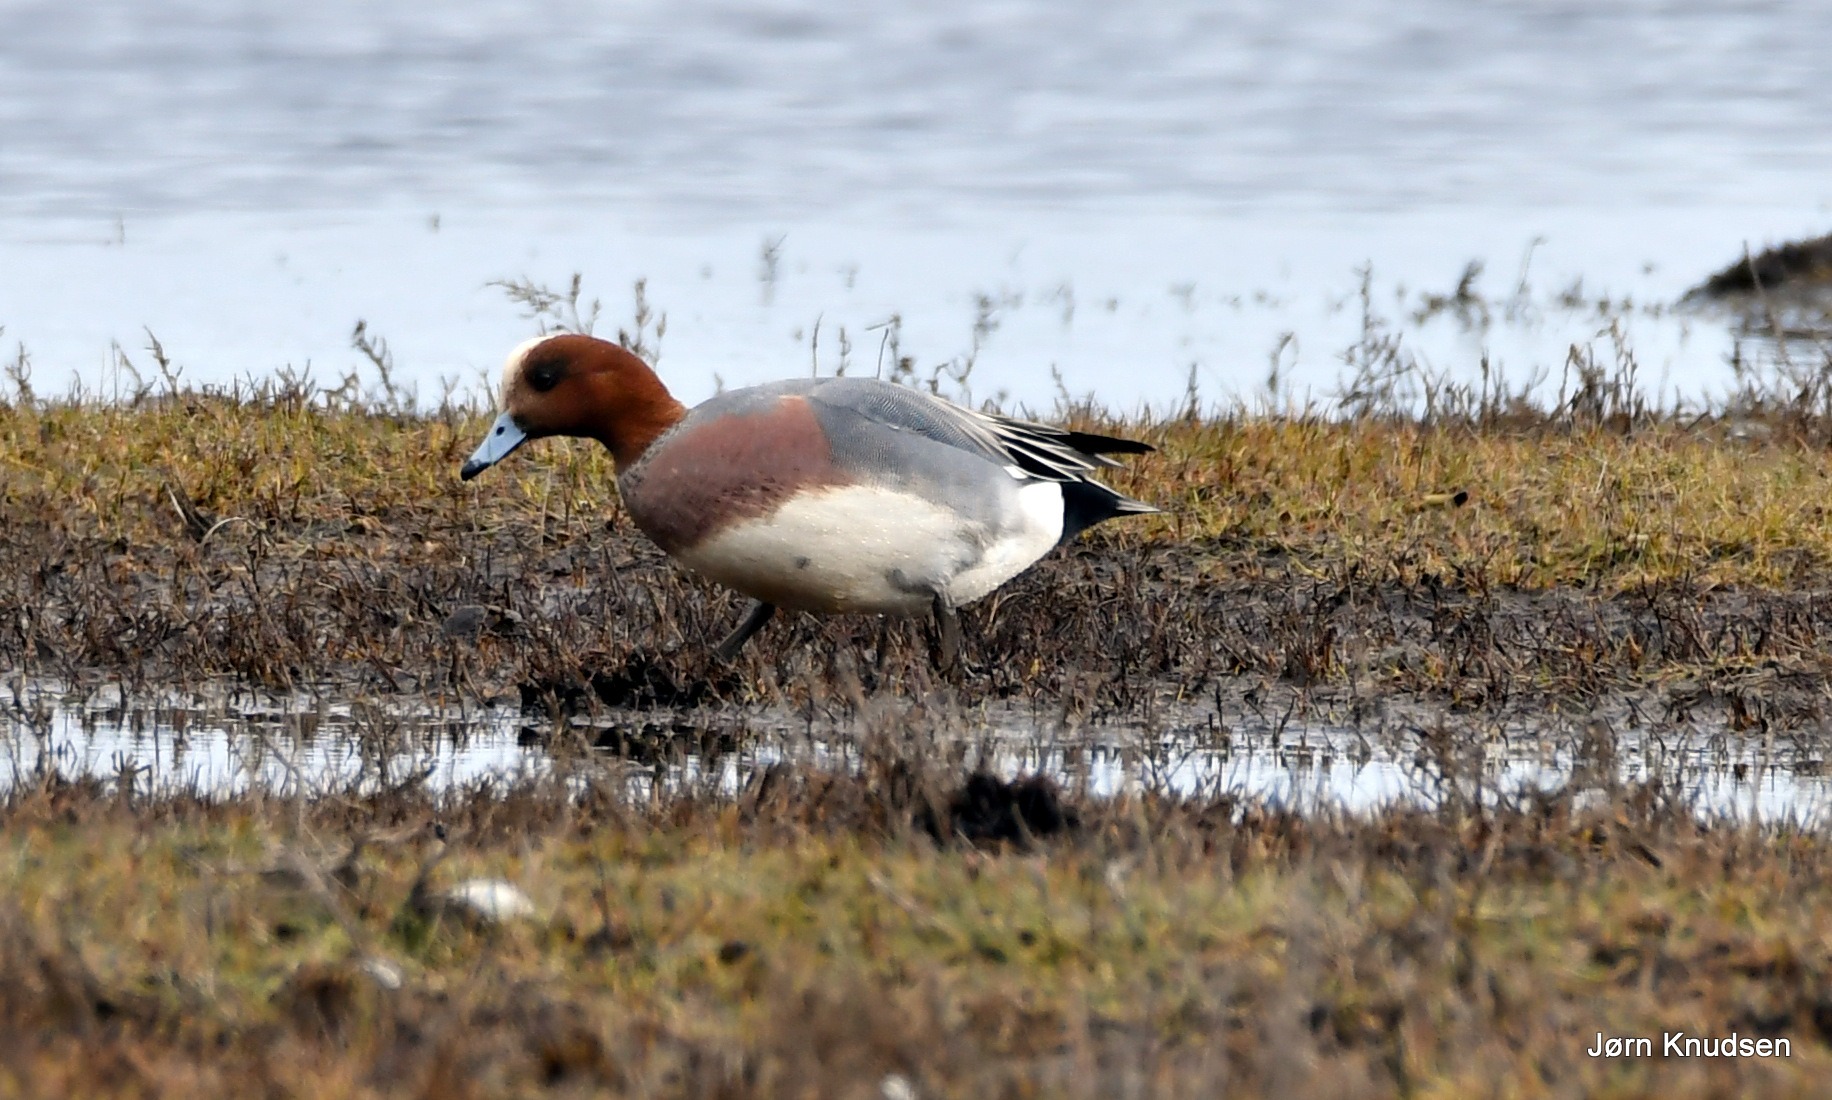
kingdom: Animalia
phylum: Chordata
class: Aves
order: Anseriformes
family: Anatidae
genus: Mareca
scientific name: Mareca penelope
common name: Pibeand
